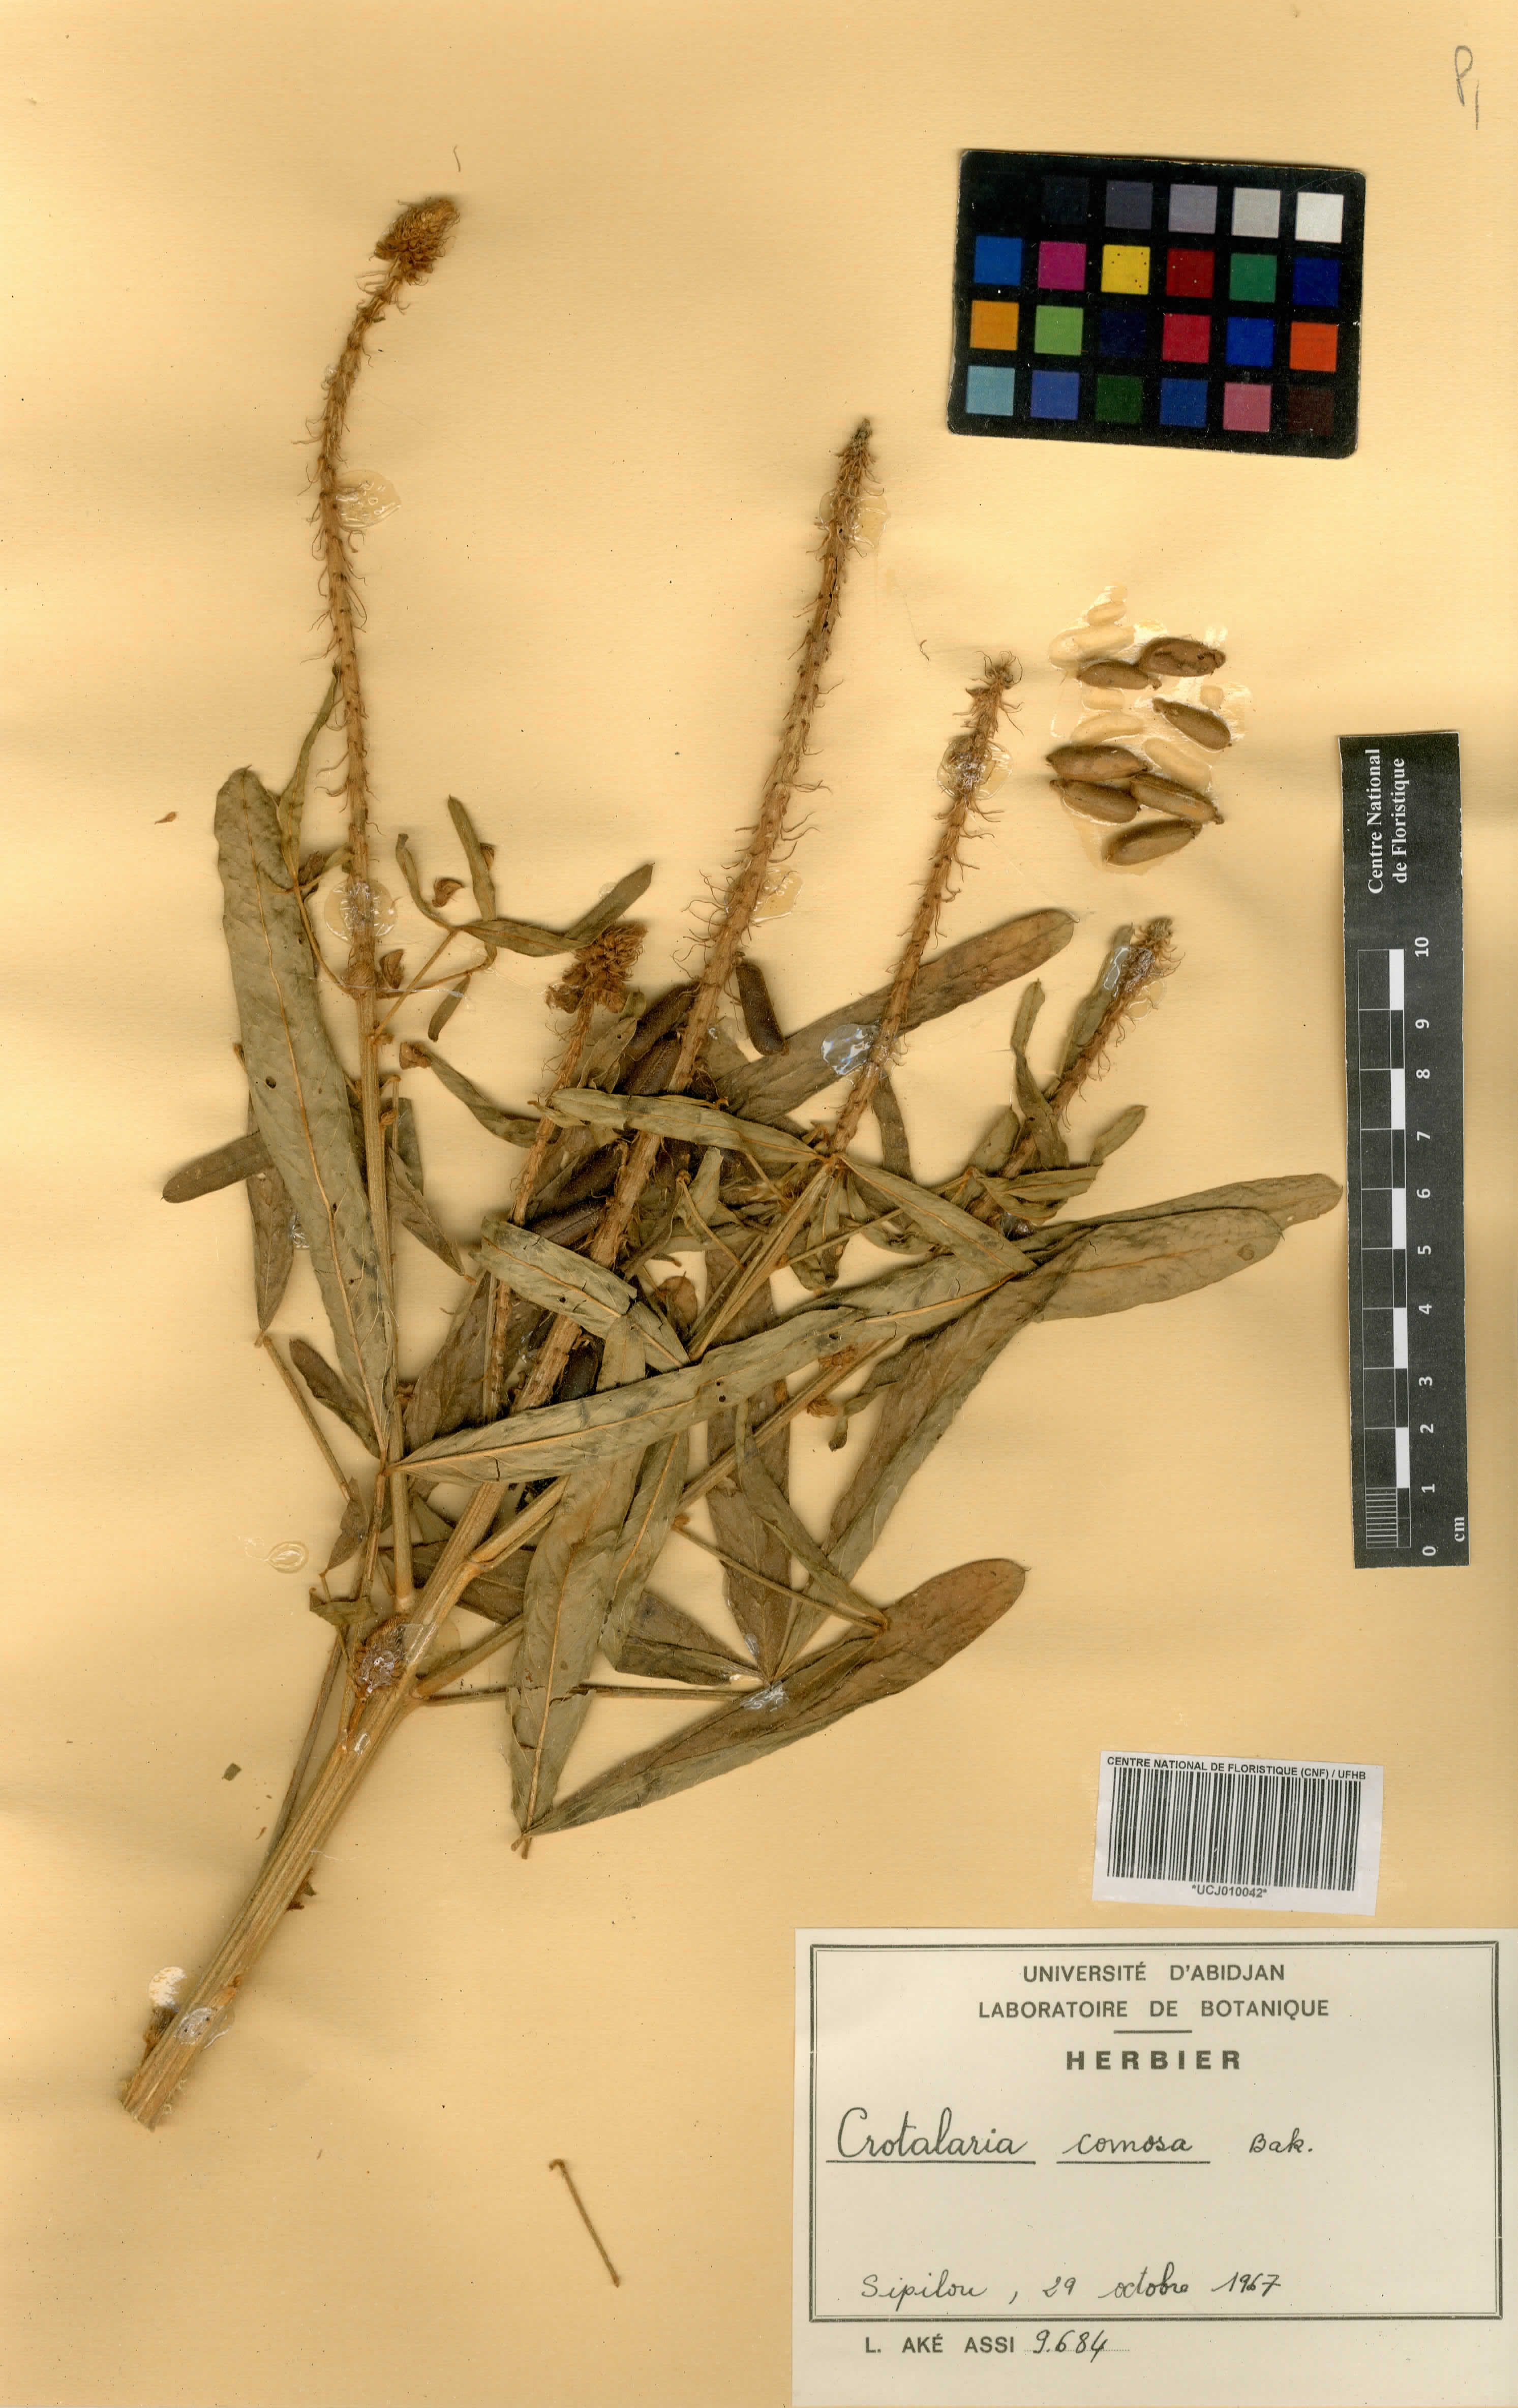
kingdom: Plantae
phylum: Tracheophyta
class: Magnoliopsida
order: Fabales
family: Fabaceae
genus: Crotalaria
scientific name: Crotalaria comosa
